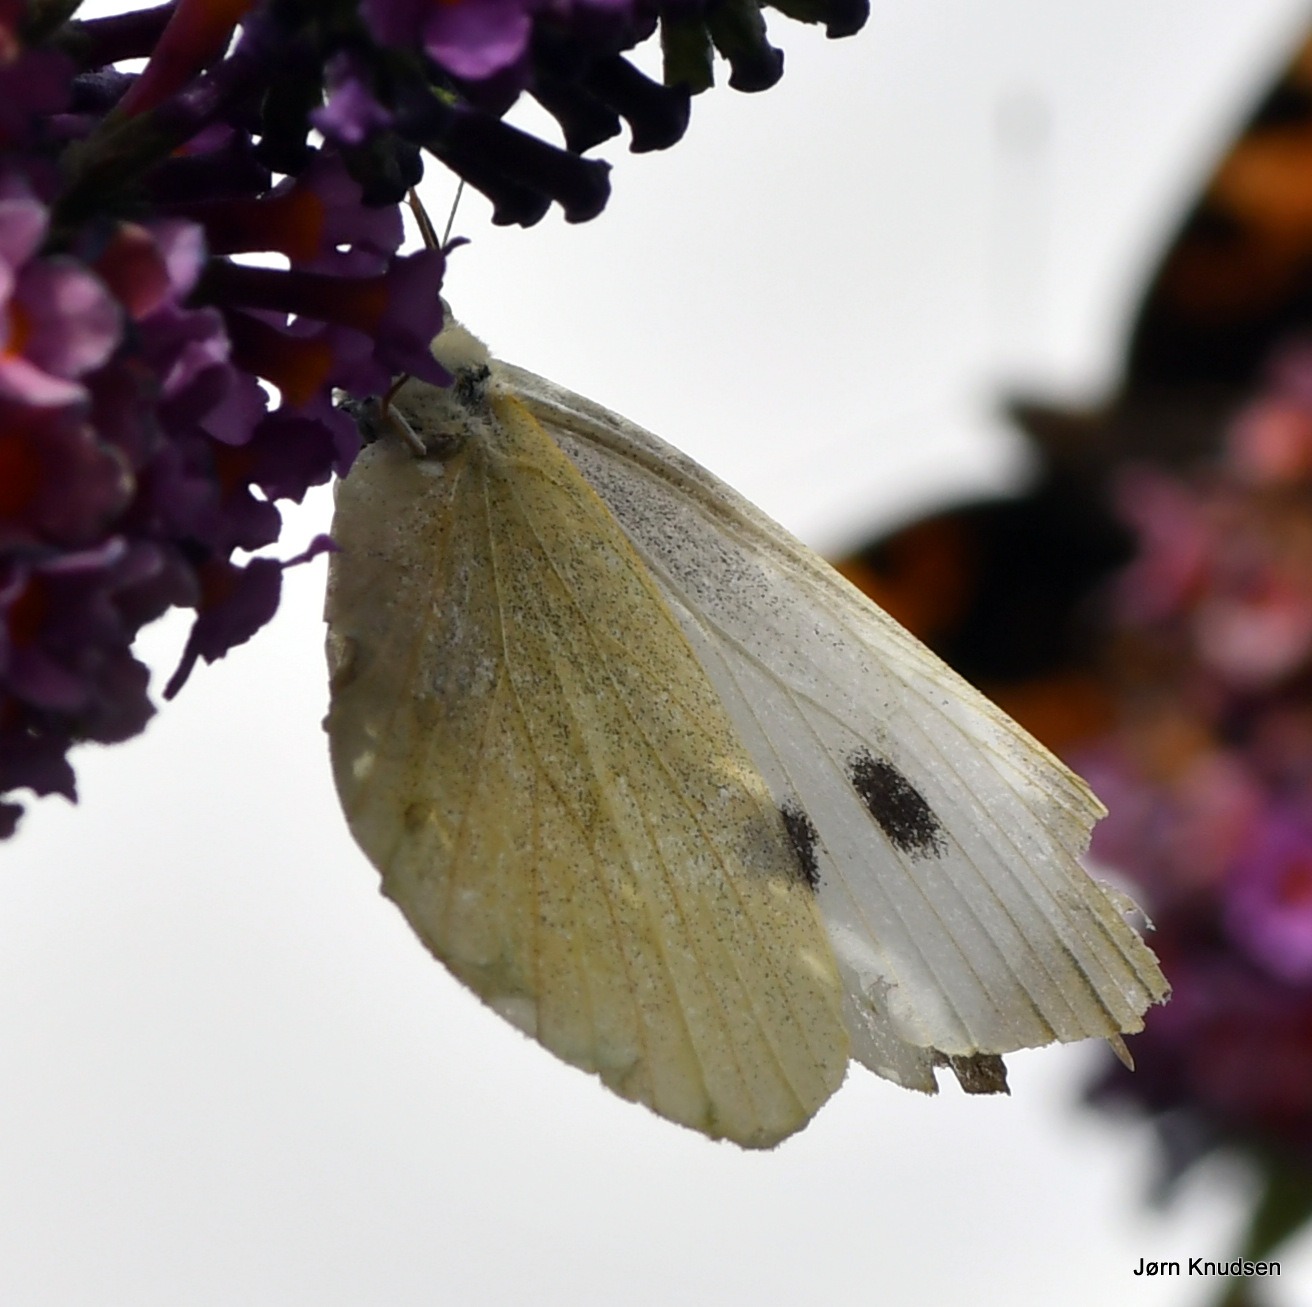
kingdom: Animalia
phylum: Arthropoda
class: Insecta
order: Lepidoptera
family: Pieridae
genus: Pieris
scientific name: Pieris brassicae
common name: Stor kålsommerfugl
